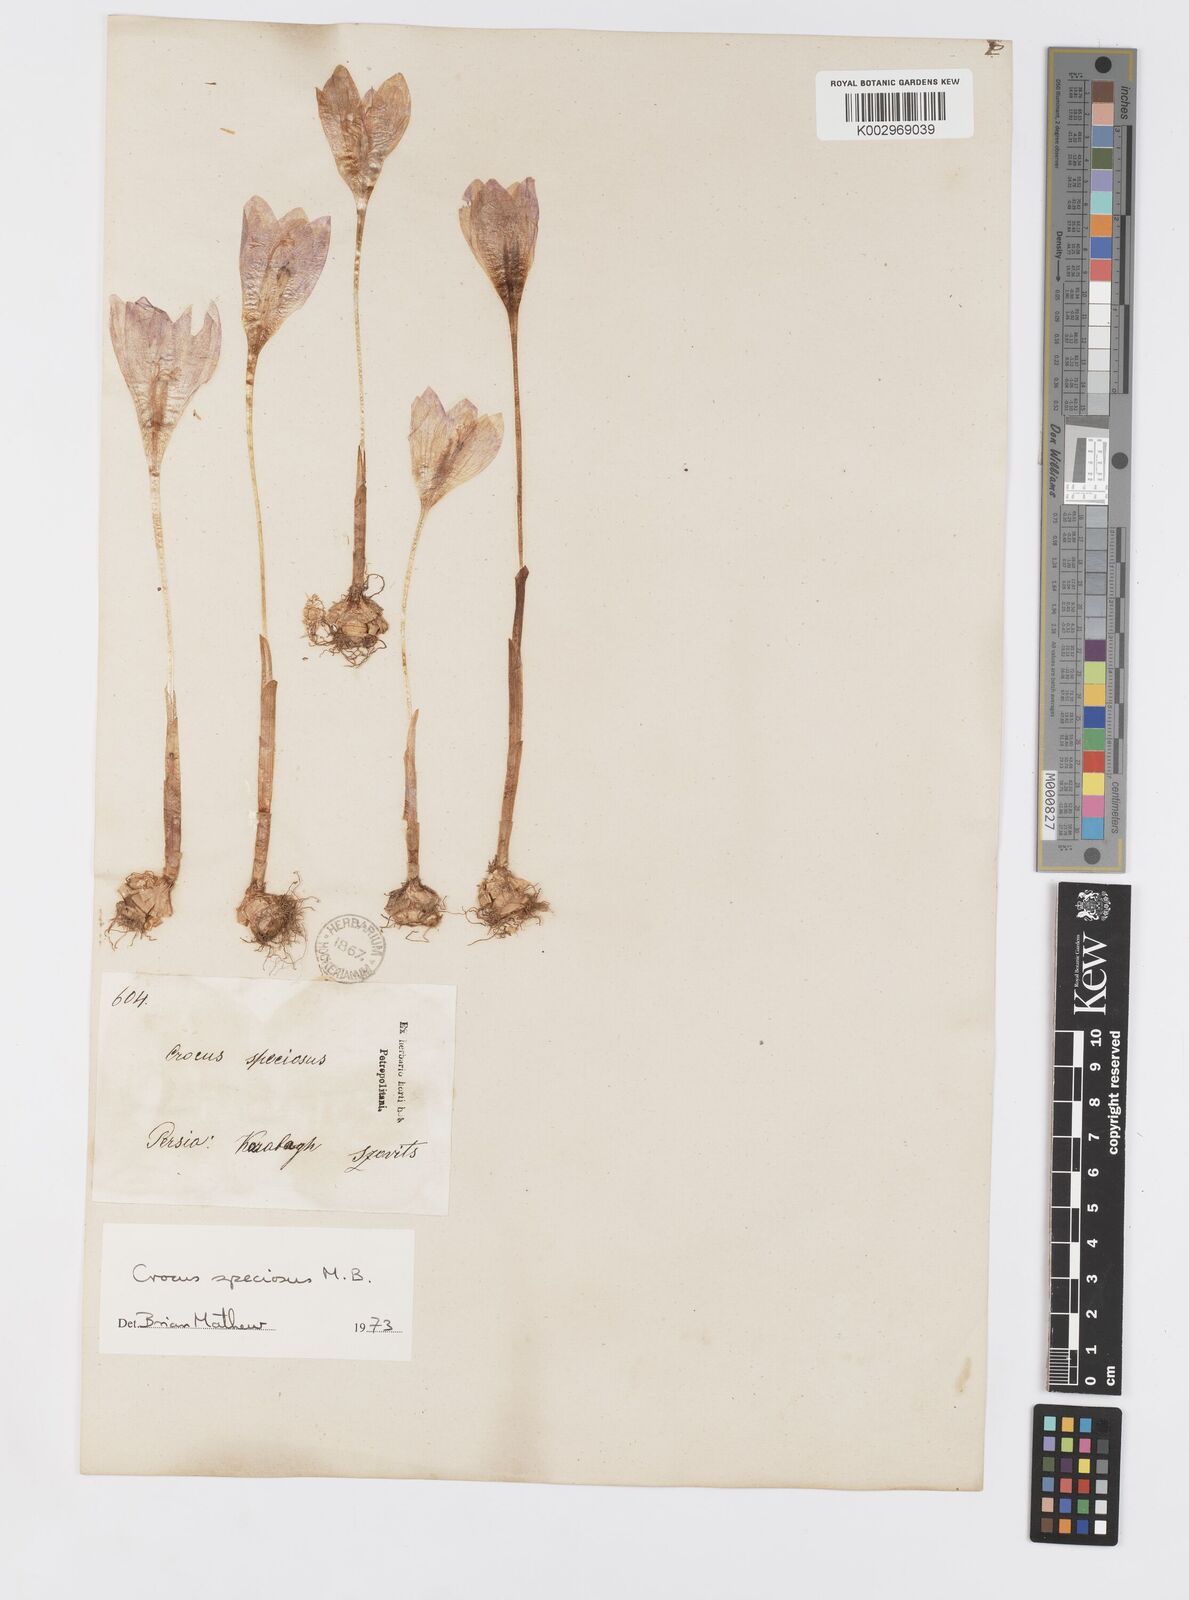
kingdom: Plantae
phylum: Tracheophyta
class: Liliopsida
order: Asparagales
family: Iridaceae
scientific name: Iridaceae
